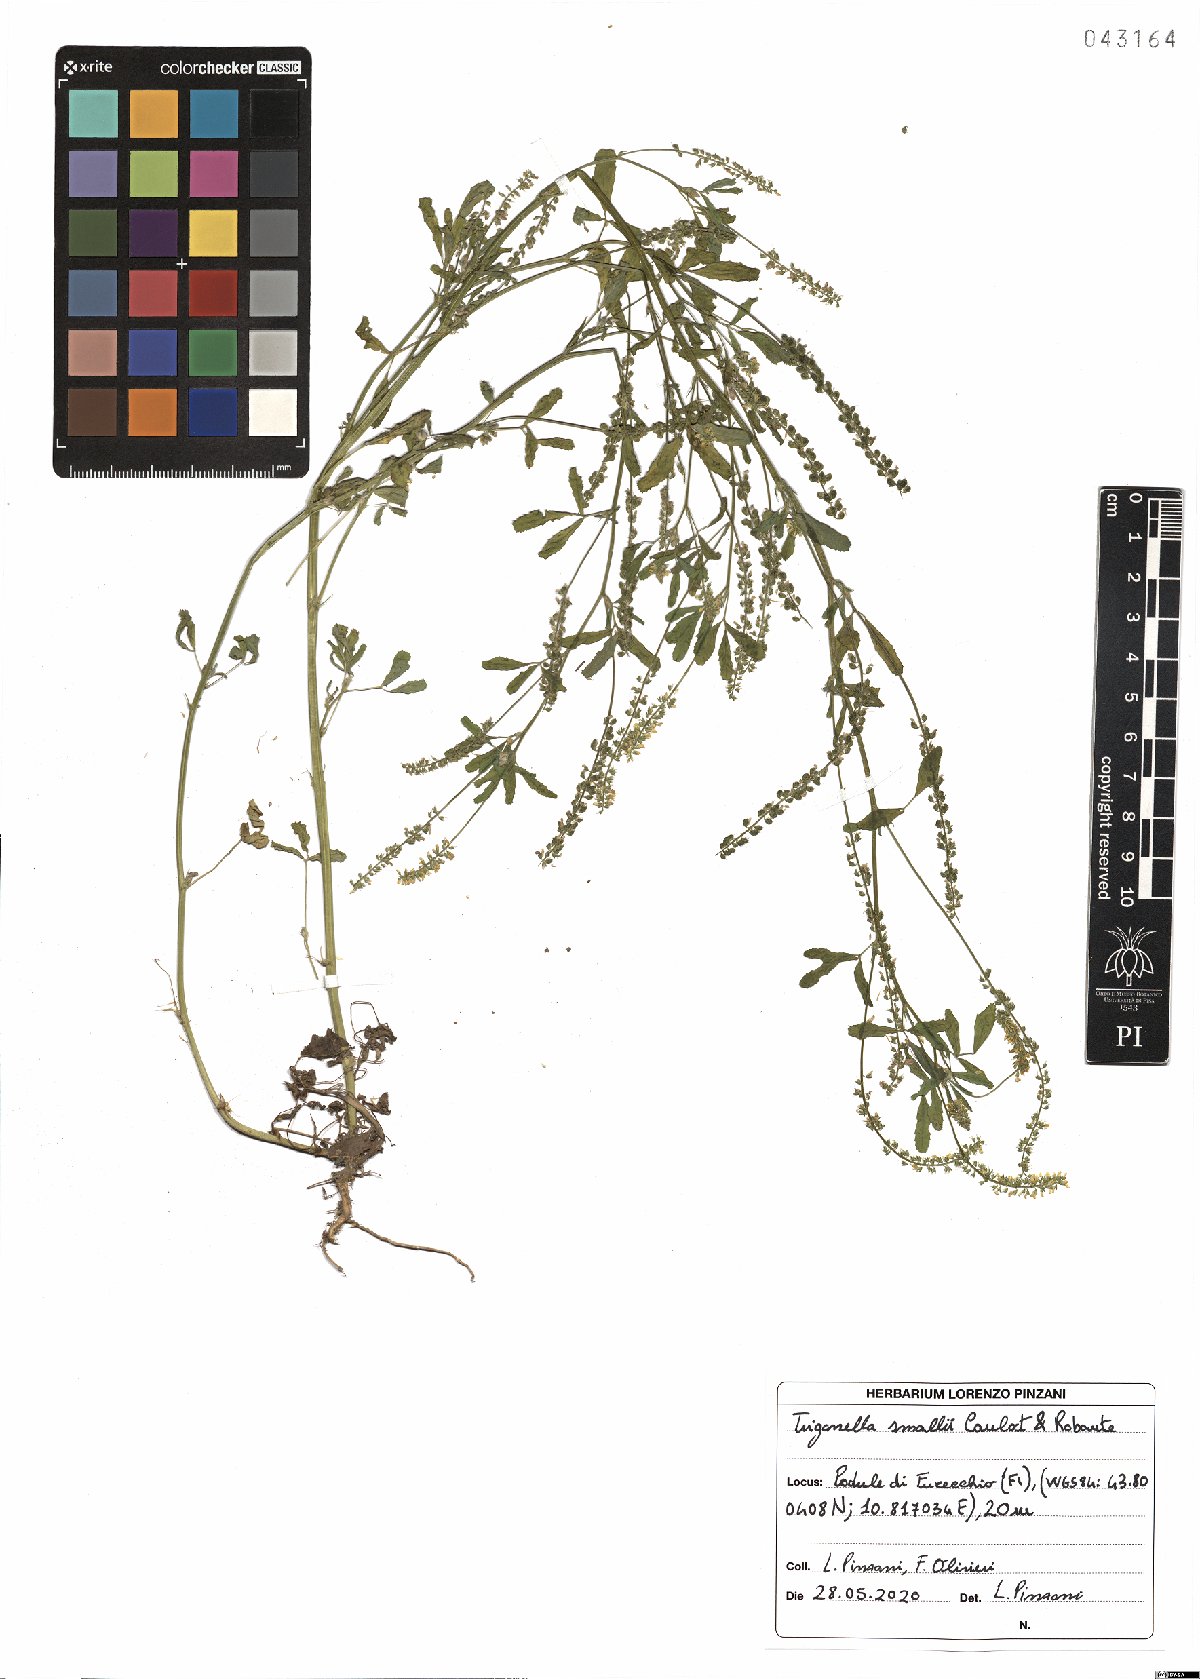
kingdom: Plantae
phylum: Tracheophyta
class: Magnoliopsida
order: Fabales
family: Fabaceae
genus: Melilotus
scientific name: Melilotus indicus
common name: Small melilot
